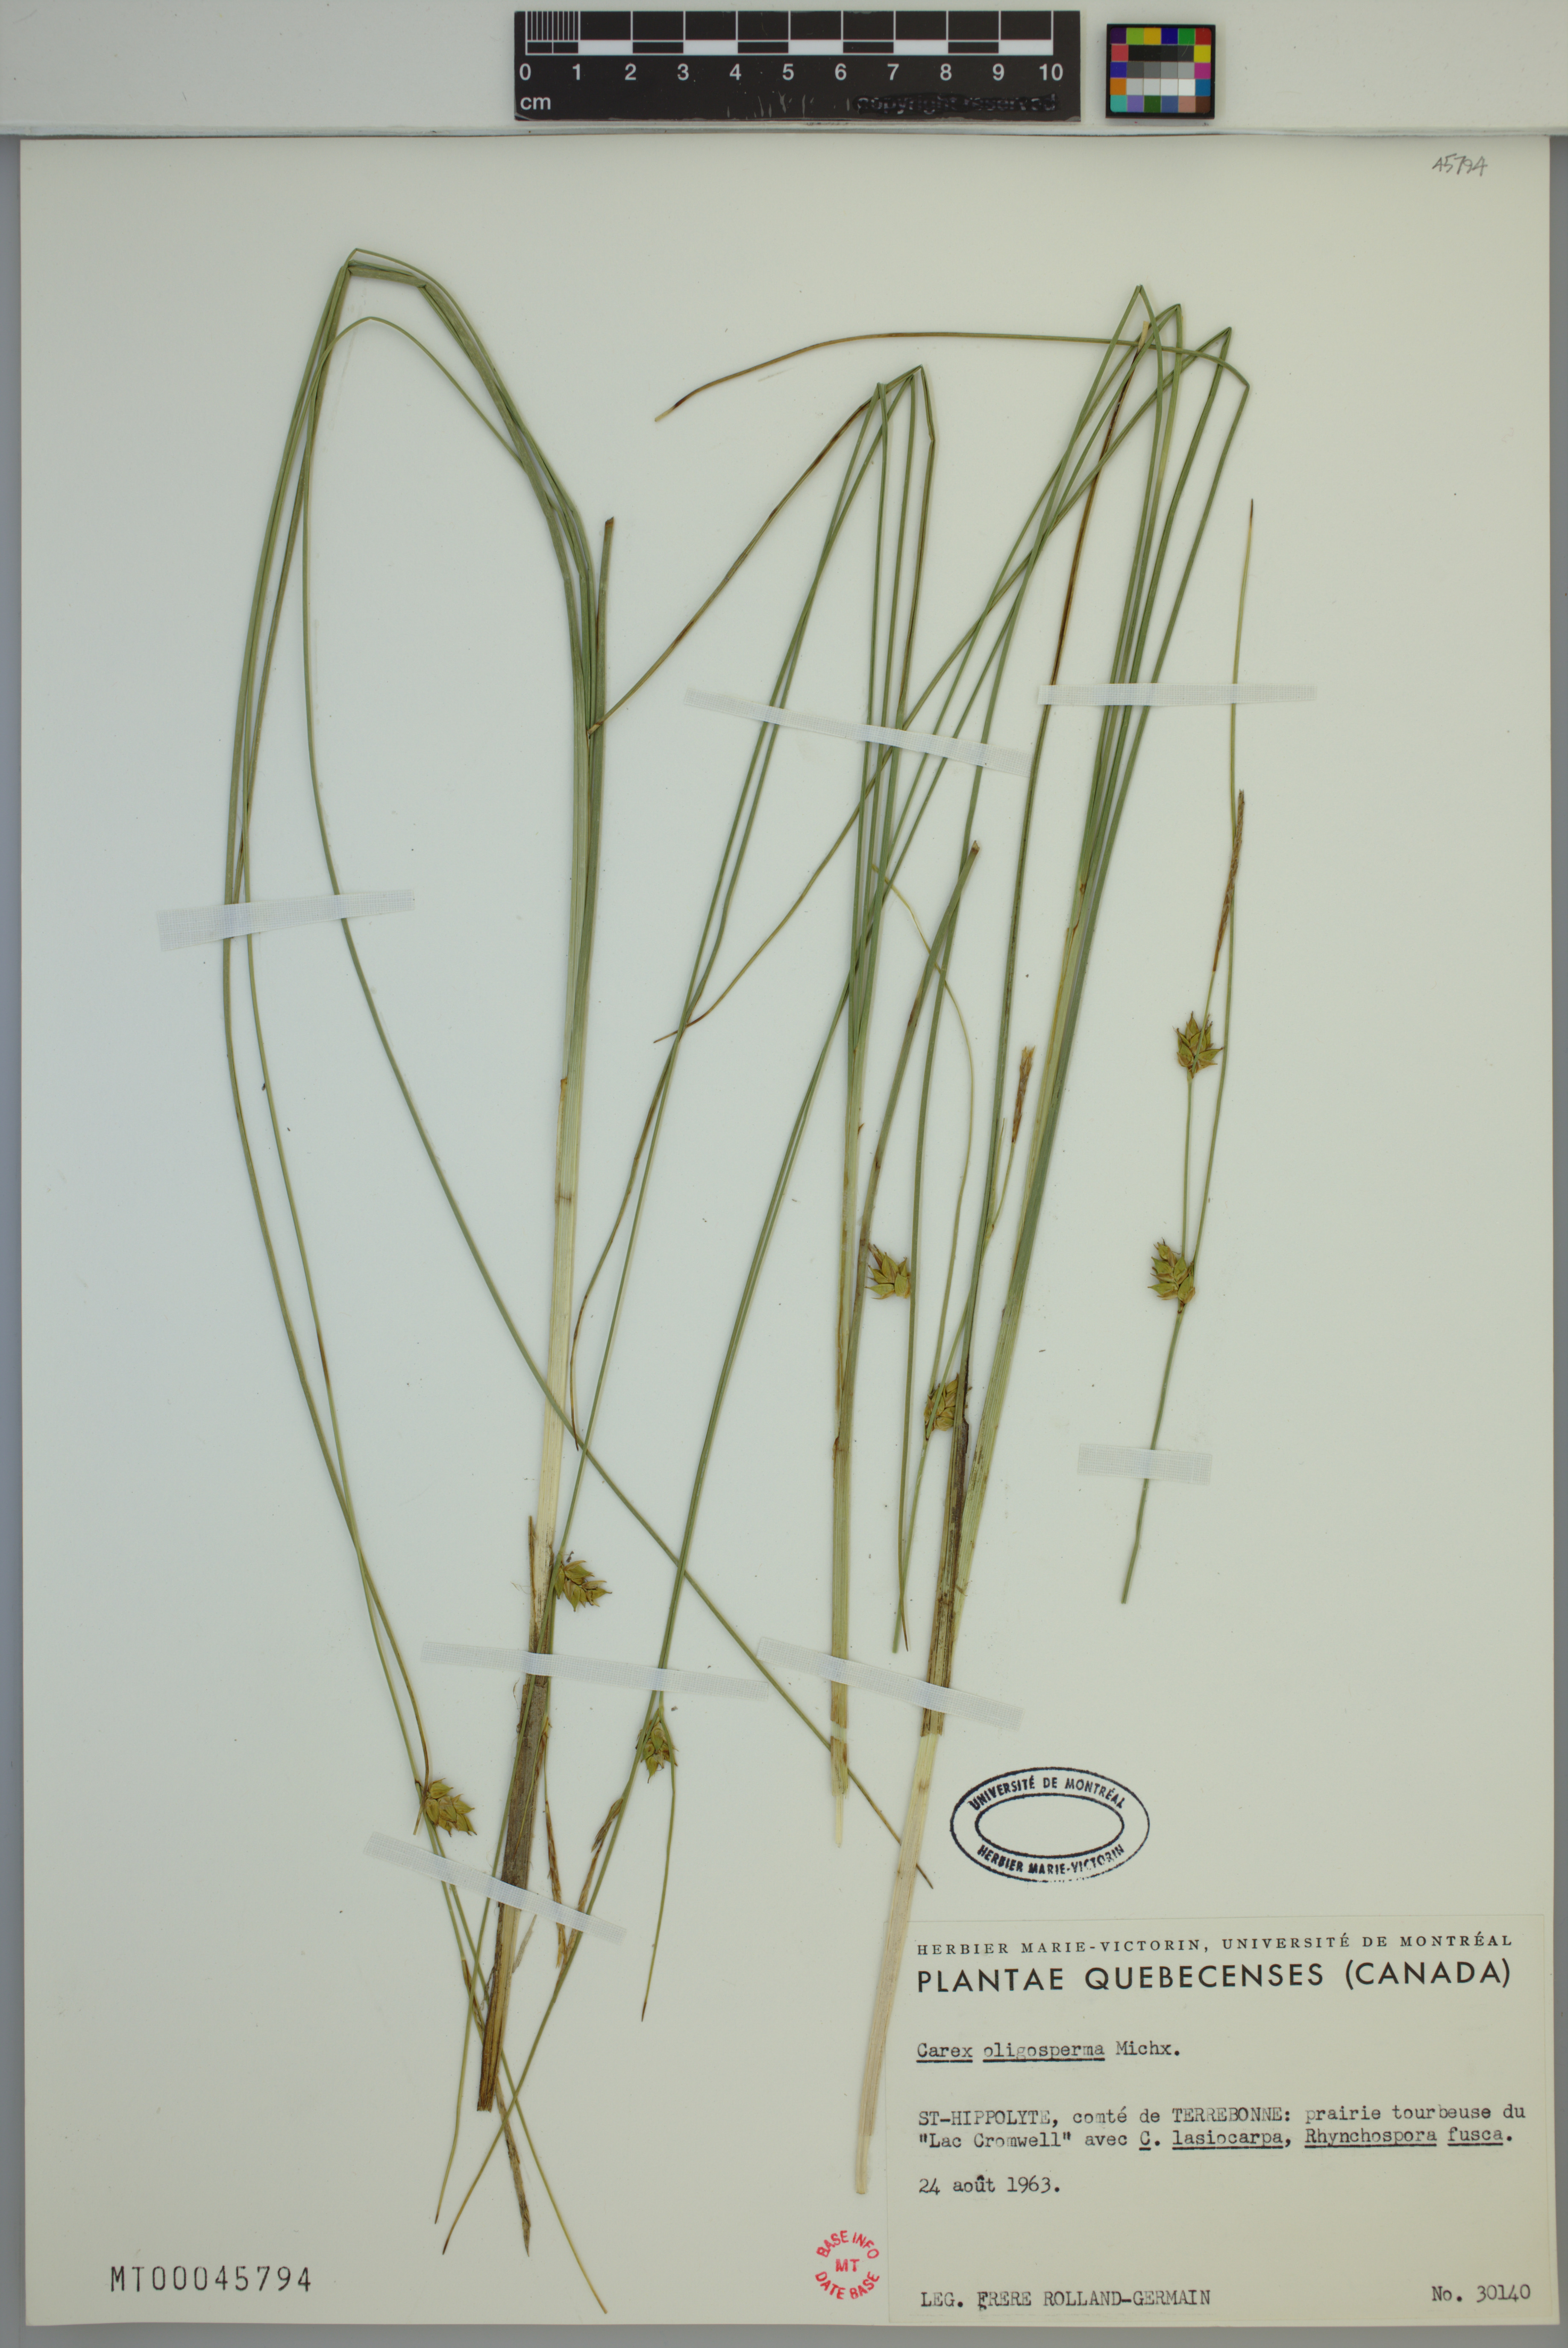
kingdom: Plantae
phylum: Tracheophyta
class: Liliopsida
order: Poales
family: Cyperaceae
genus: Carex
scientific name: Carex oligosperma
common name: Few-seed sedge
